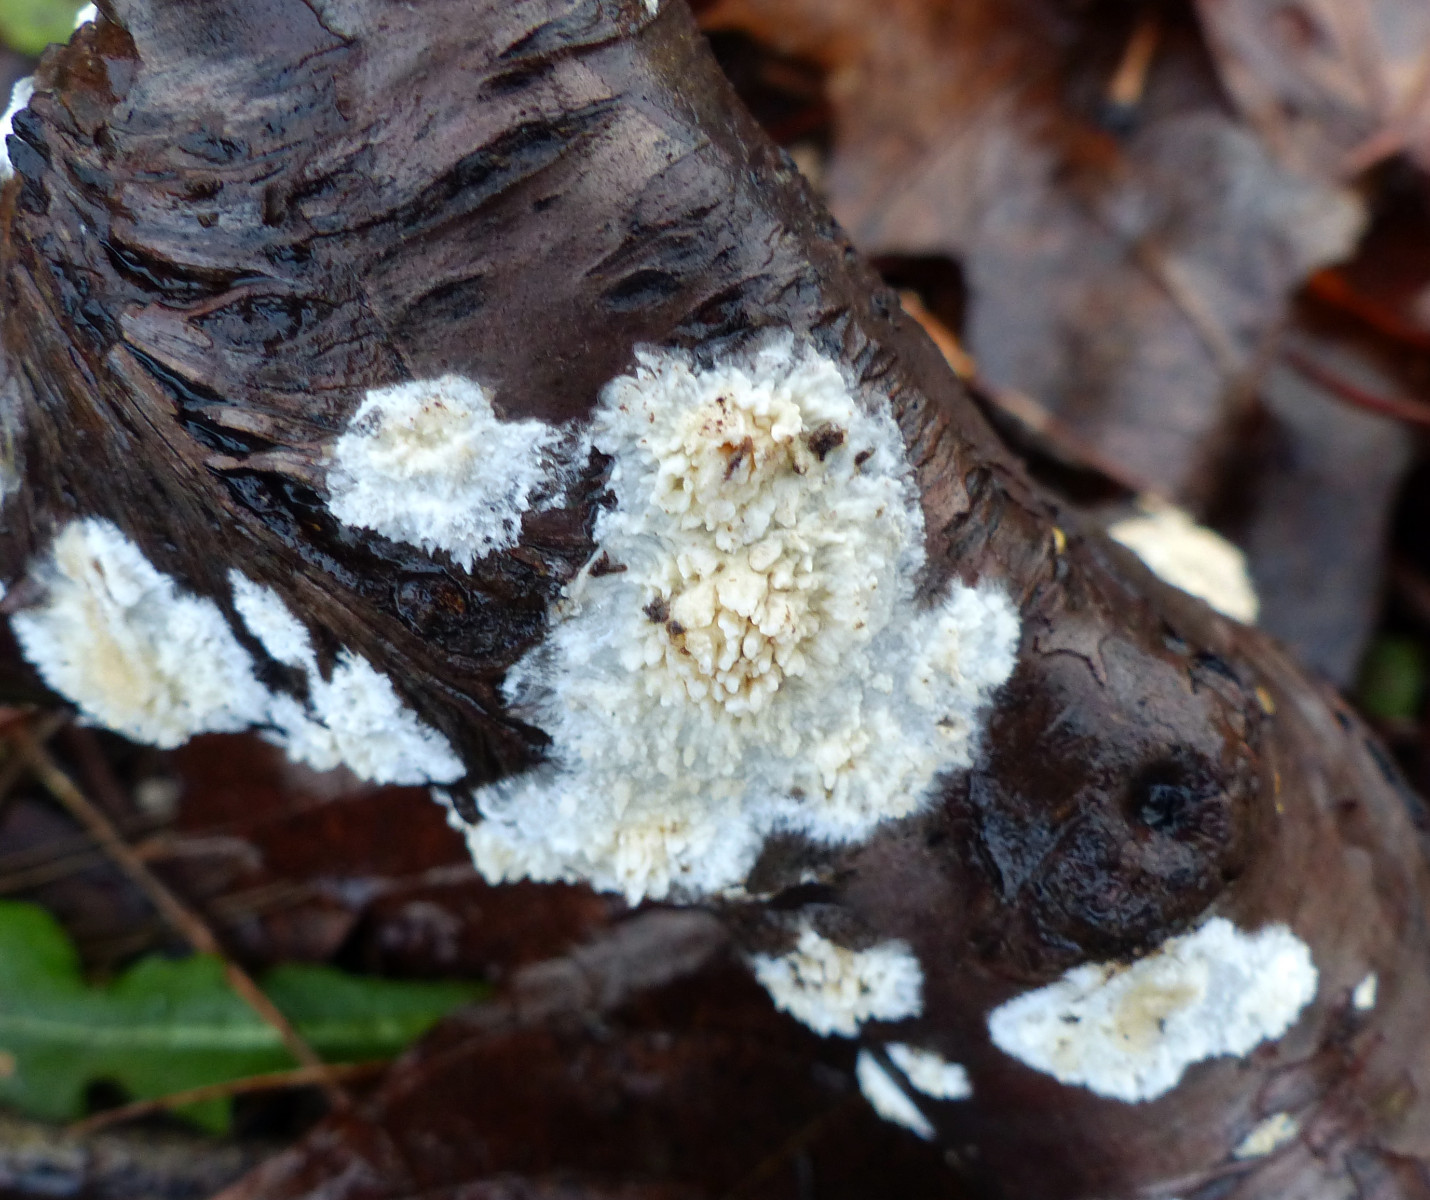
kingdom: Fungi
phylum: Basidiomycota
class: Agaricomycetes
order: Hymenochaetales
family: Schizoporaceae
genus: Xylodon
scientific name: Xylodon radula
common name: grovtandet kalkskind
